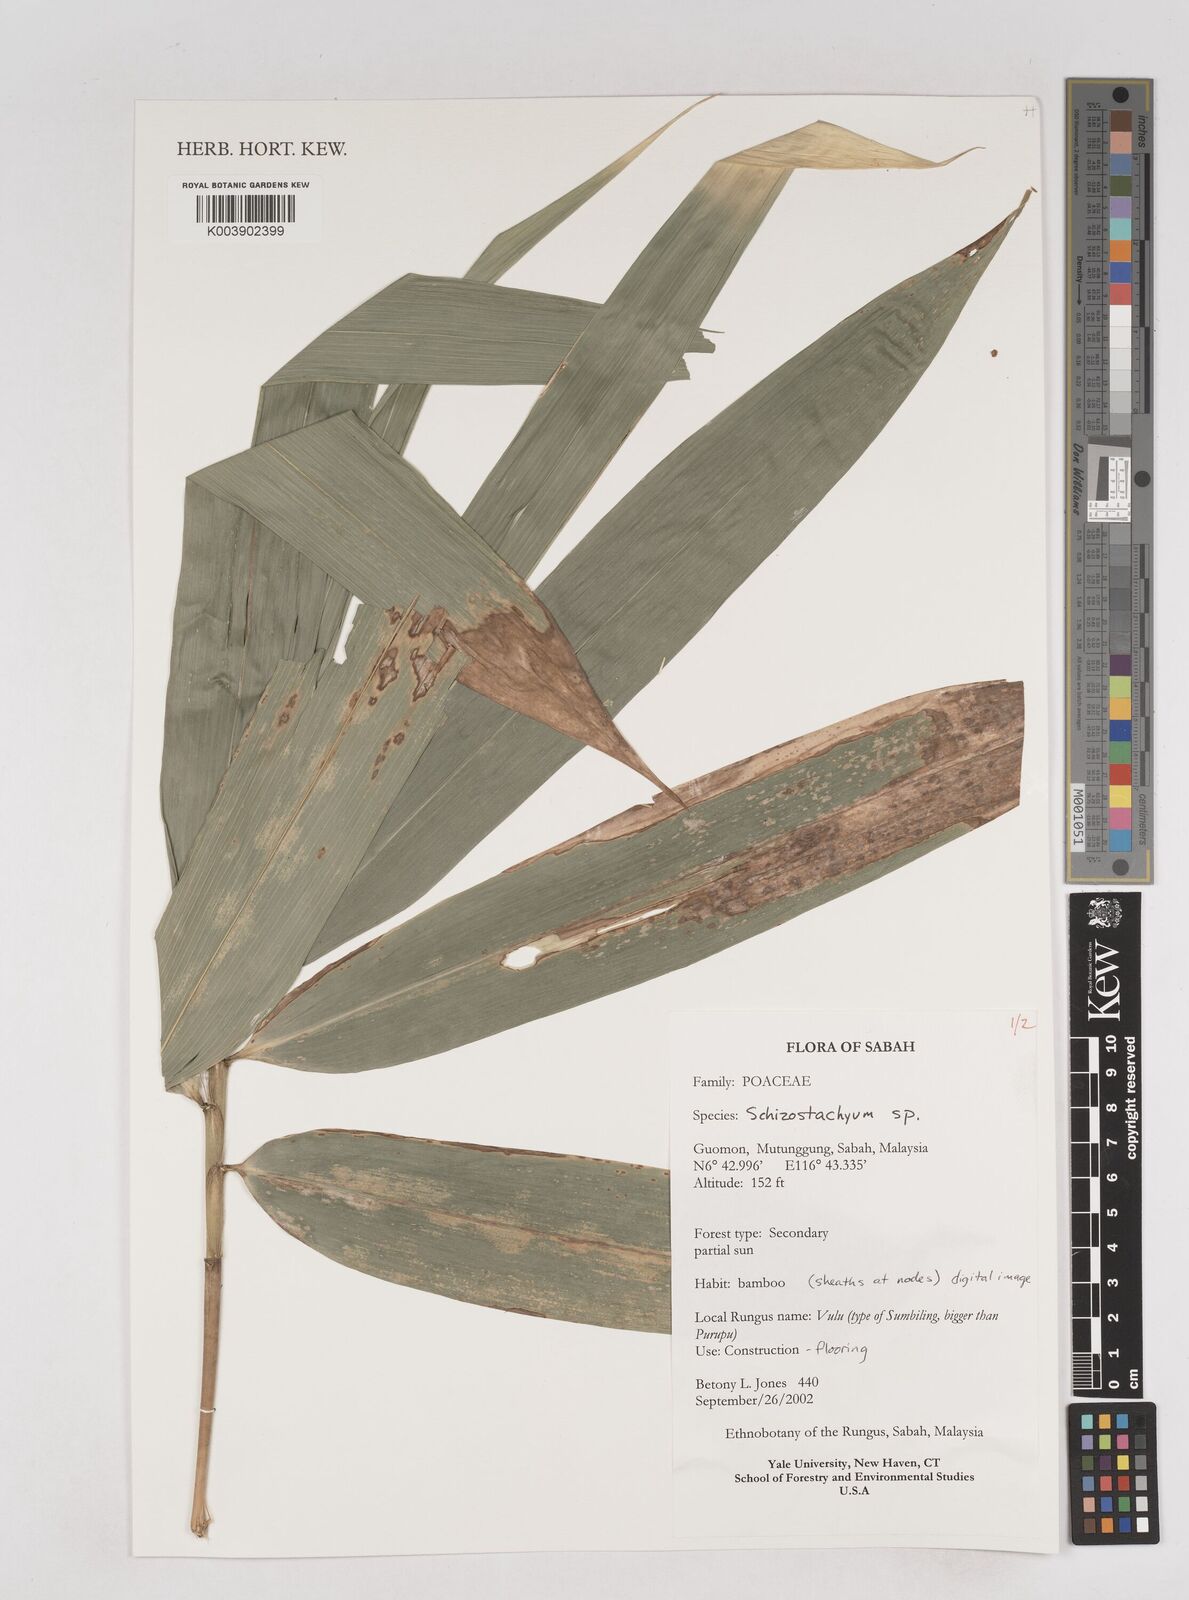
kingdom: Plantae
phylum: Tracheophyta
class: Liliopsida
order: Poales
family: Poaceae
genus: Schizostachyum
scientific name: Schizostachyum
